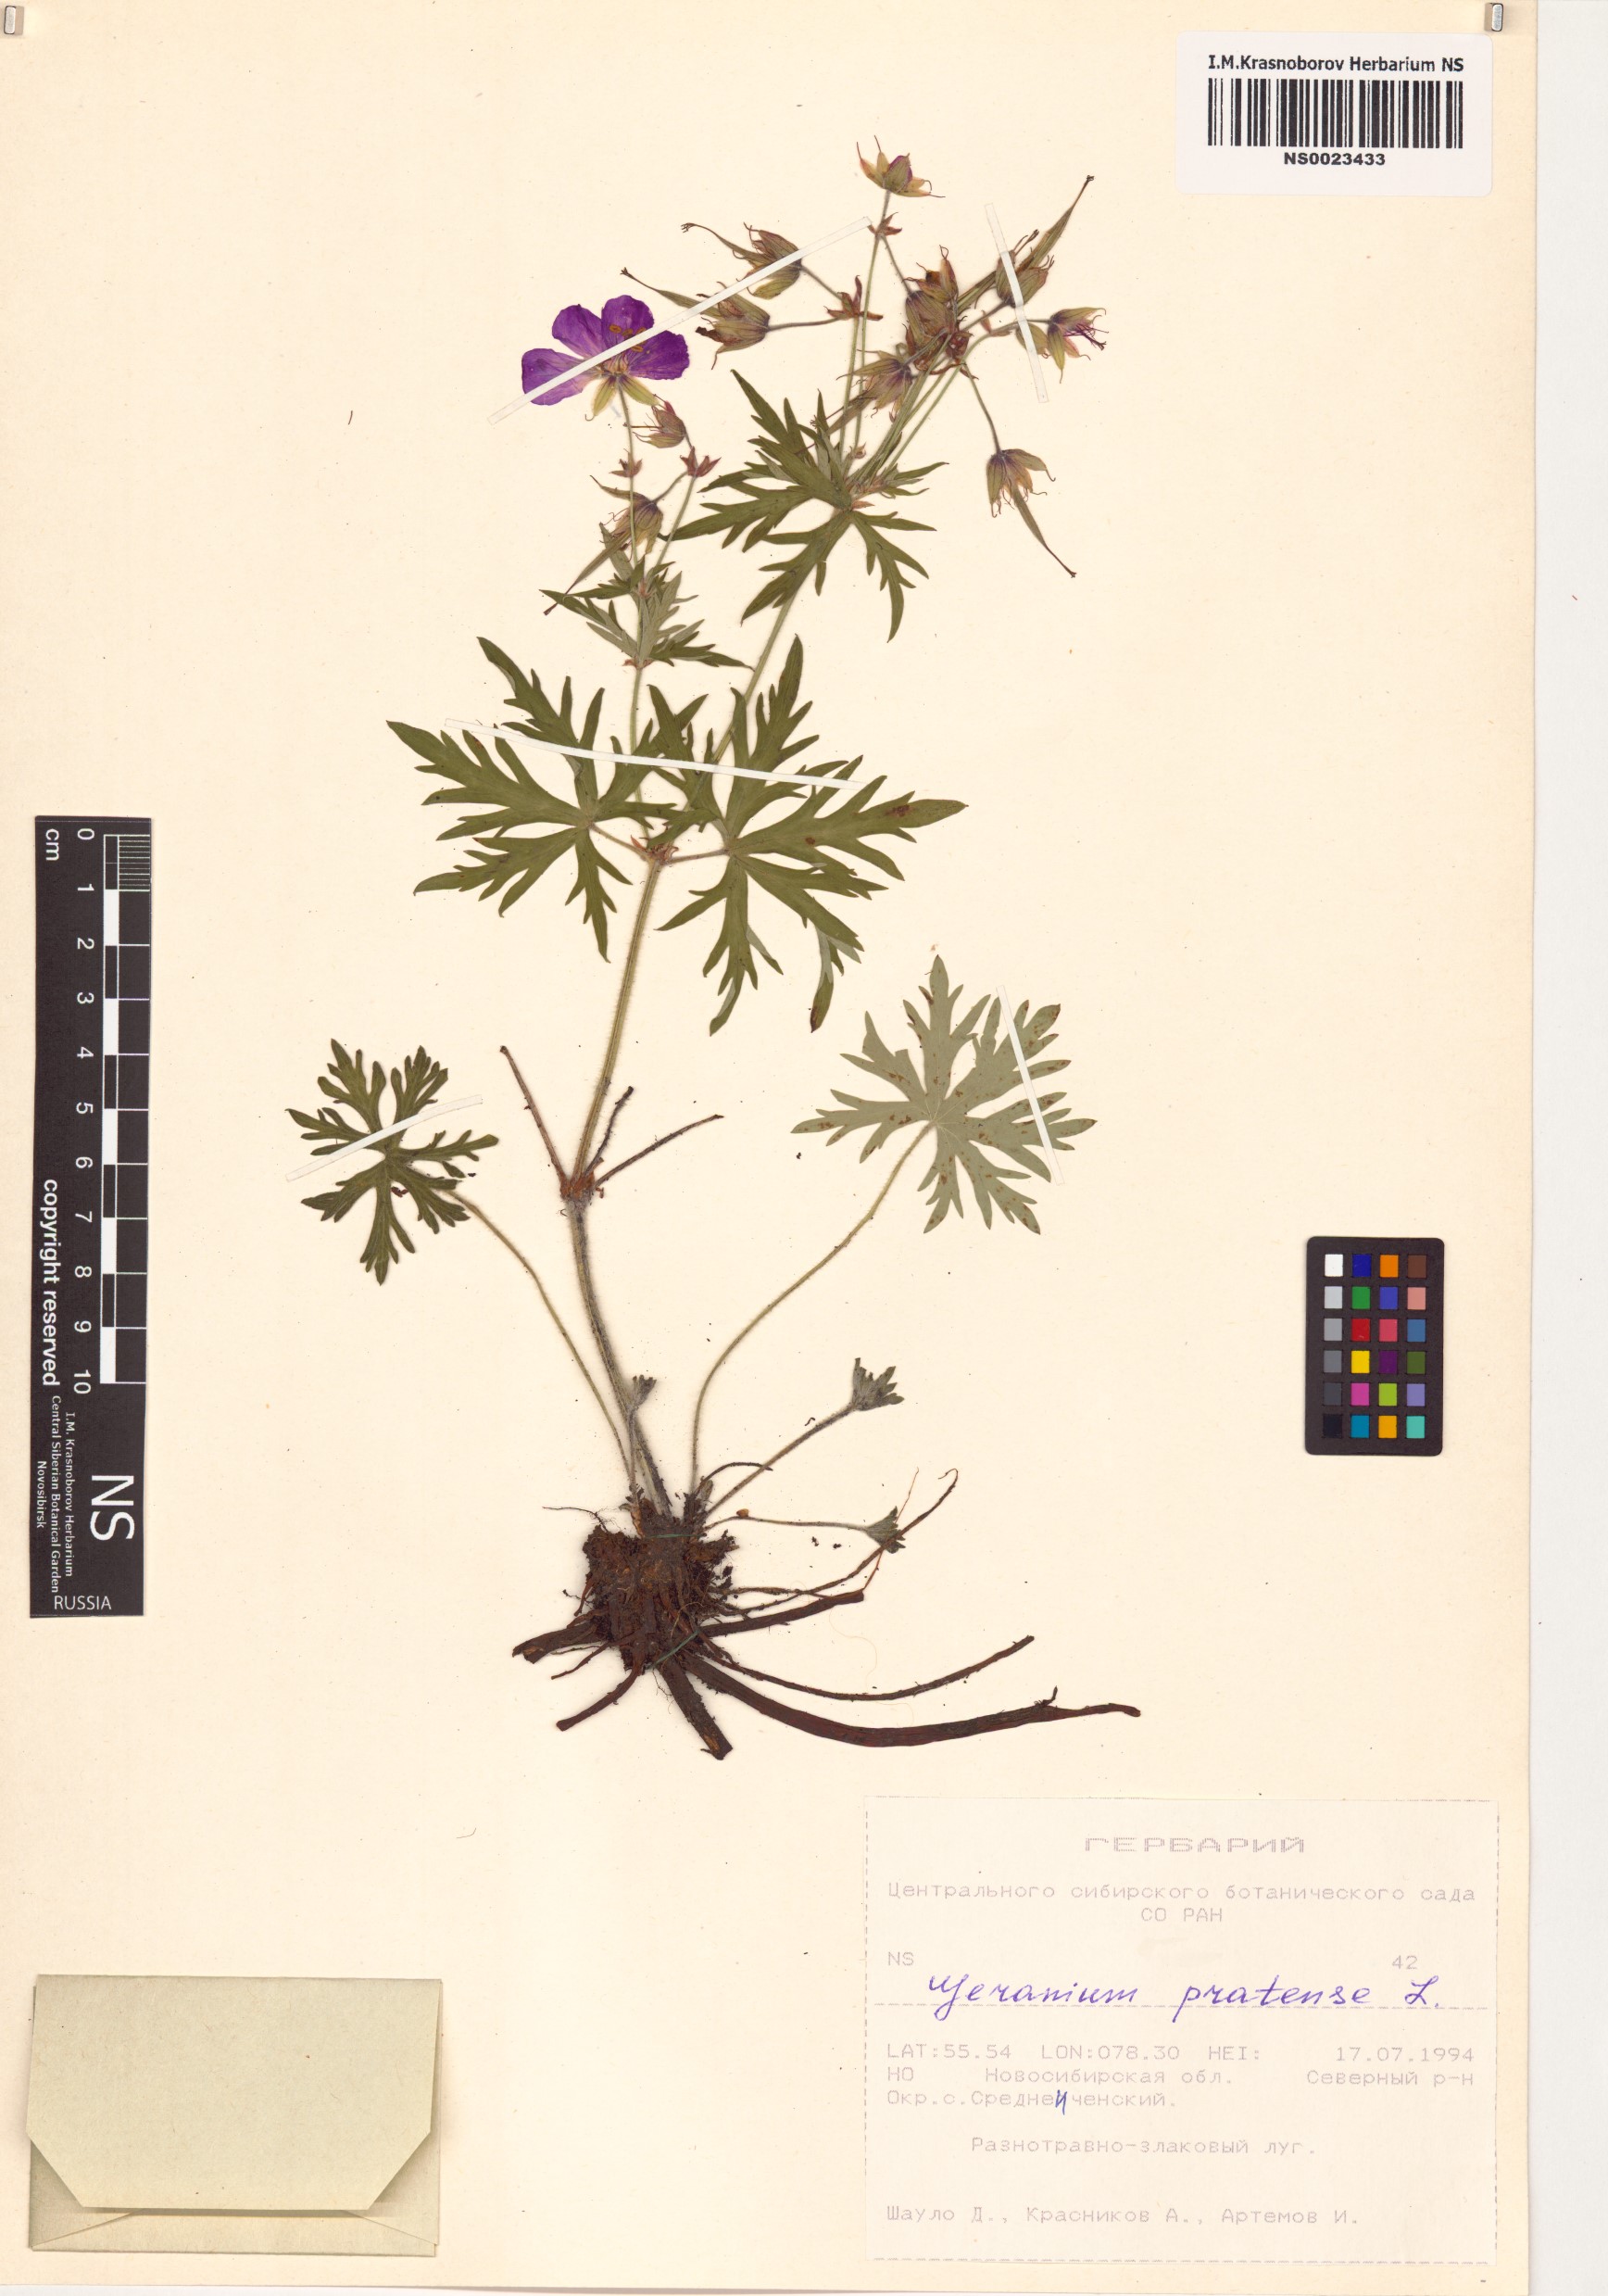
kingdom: Plantae
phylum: Tracheophyta
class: Magnoliopsida
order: Geraniales
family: Geraniaceae
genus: Geranium
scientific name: Geranium pratense
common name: Meadow crane's-bill
